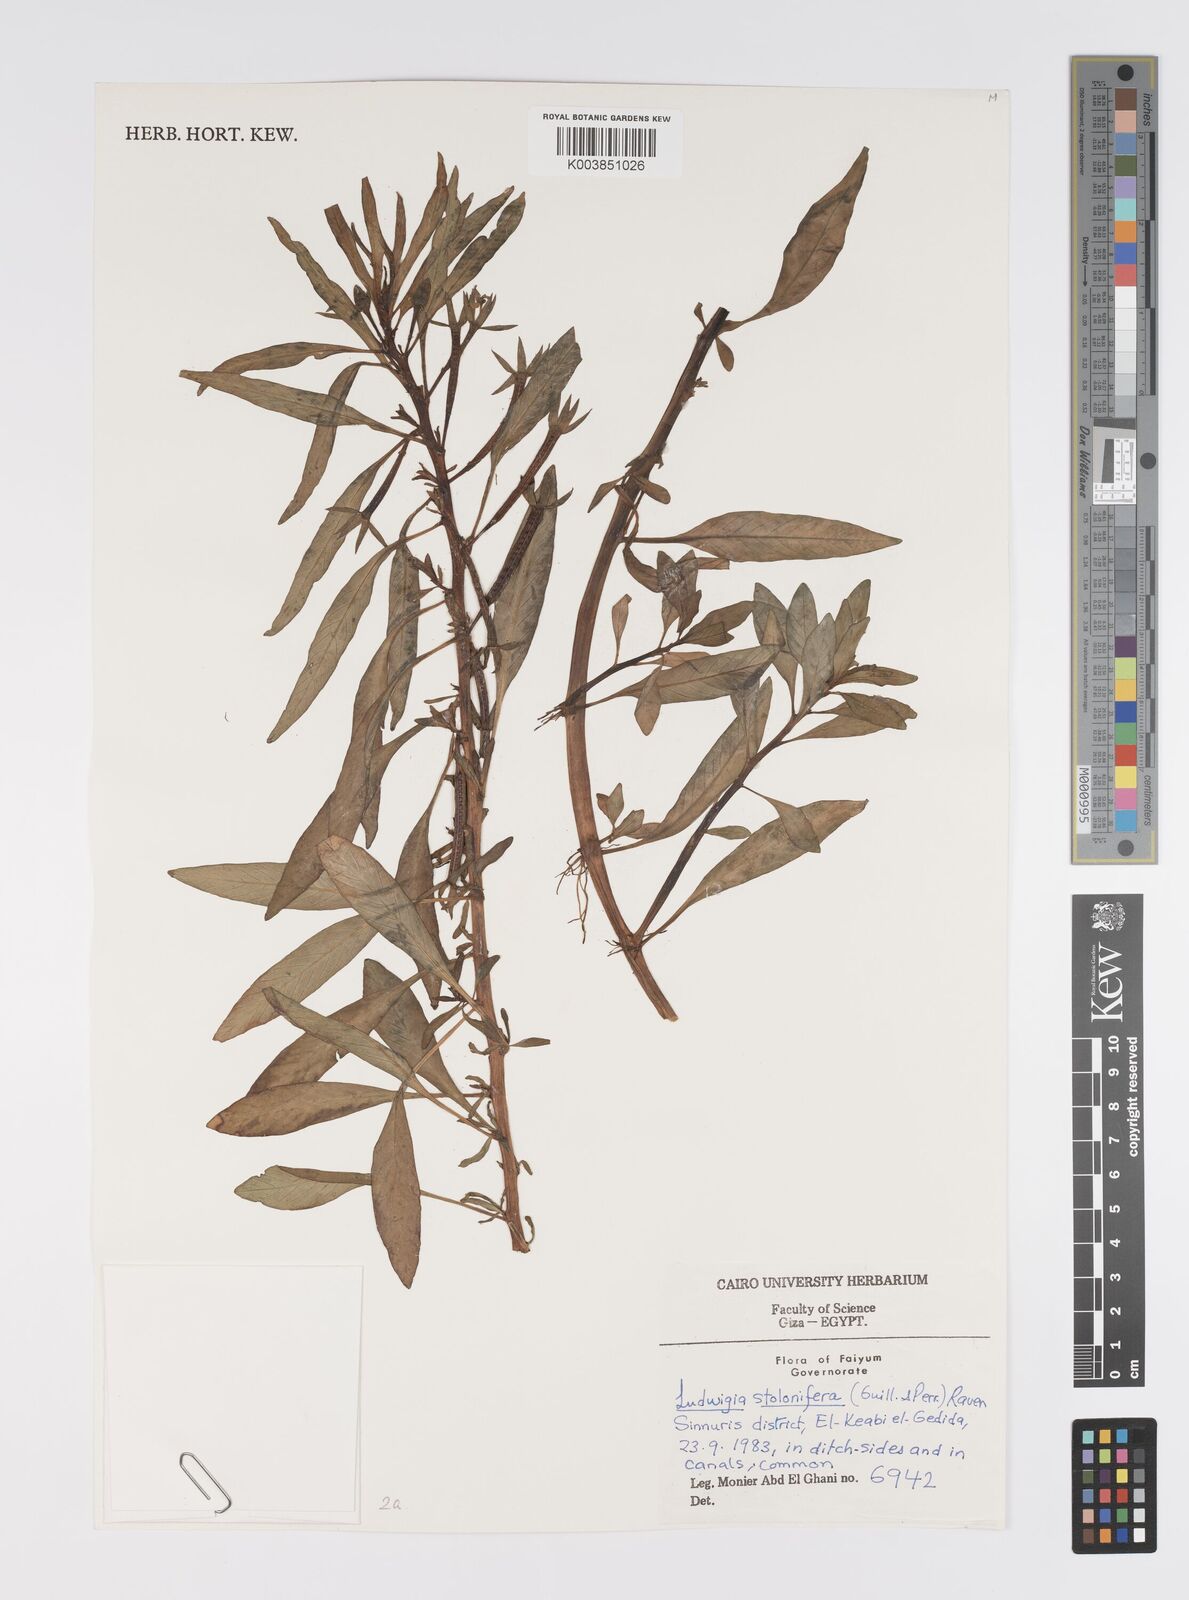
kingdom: Plantae
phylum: Tracheophyta
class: Magnoliopsida
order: Myrtales
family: Onagraceae
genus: Ludwigia
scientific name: Ludwigia adscendens
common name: Creeping water primrose
